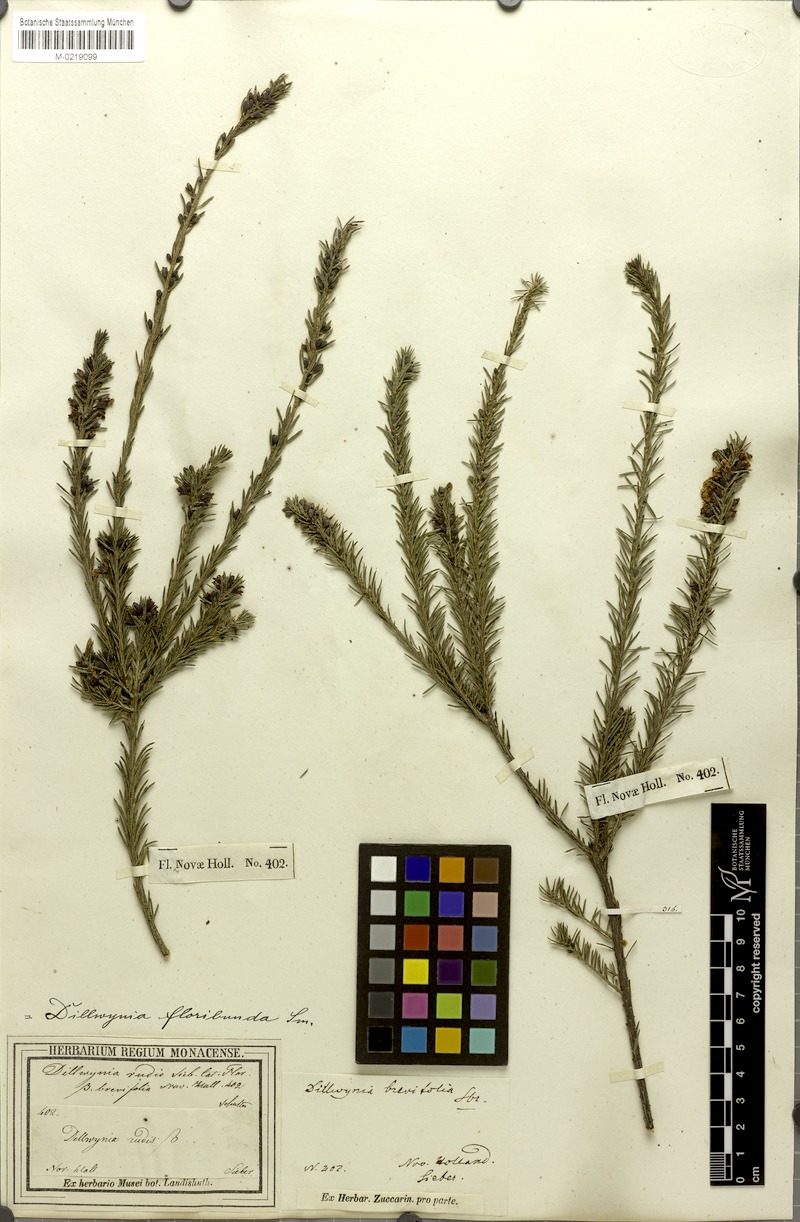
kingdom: Plantae
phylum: Tracheophyta
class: Magnoliopsida
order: Fabales
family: Fabaceae
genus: Dillwynia
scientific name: Dillwynia floribunda
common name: Eggs-and-bacon
